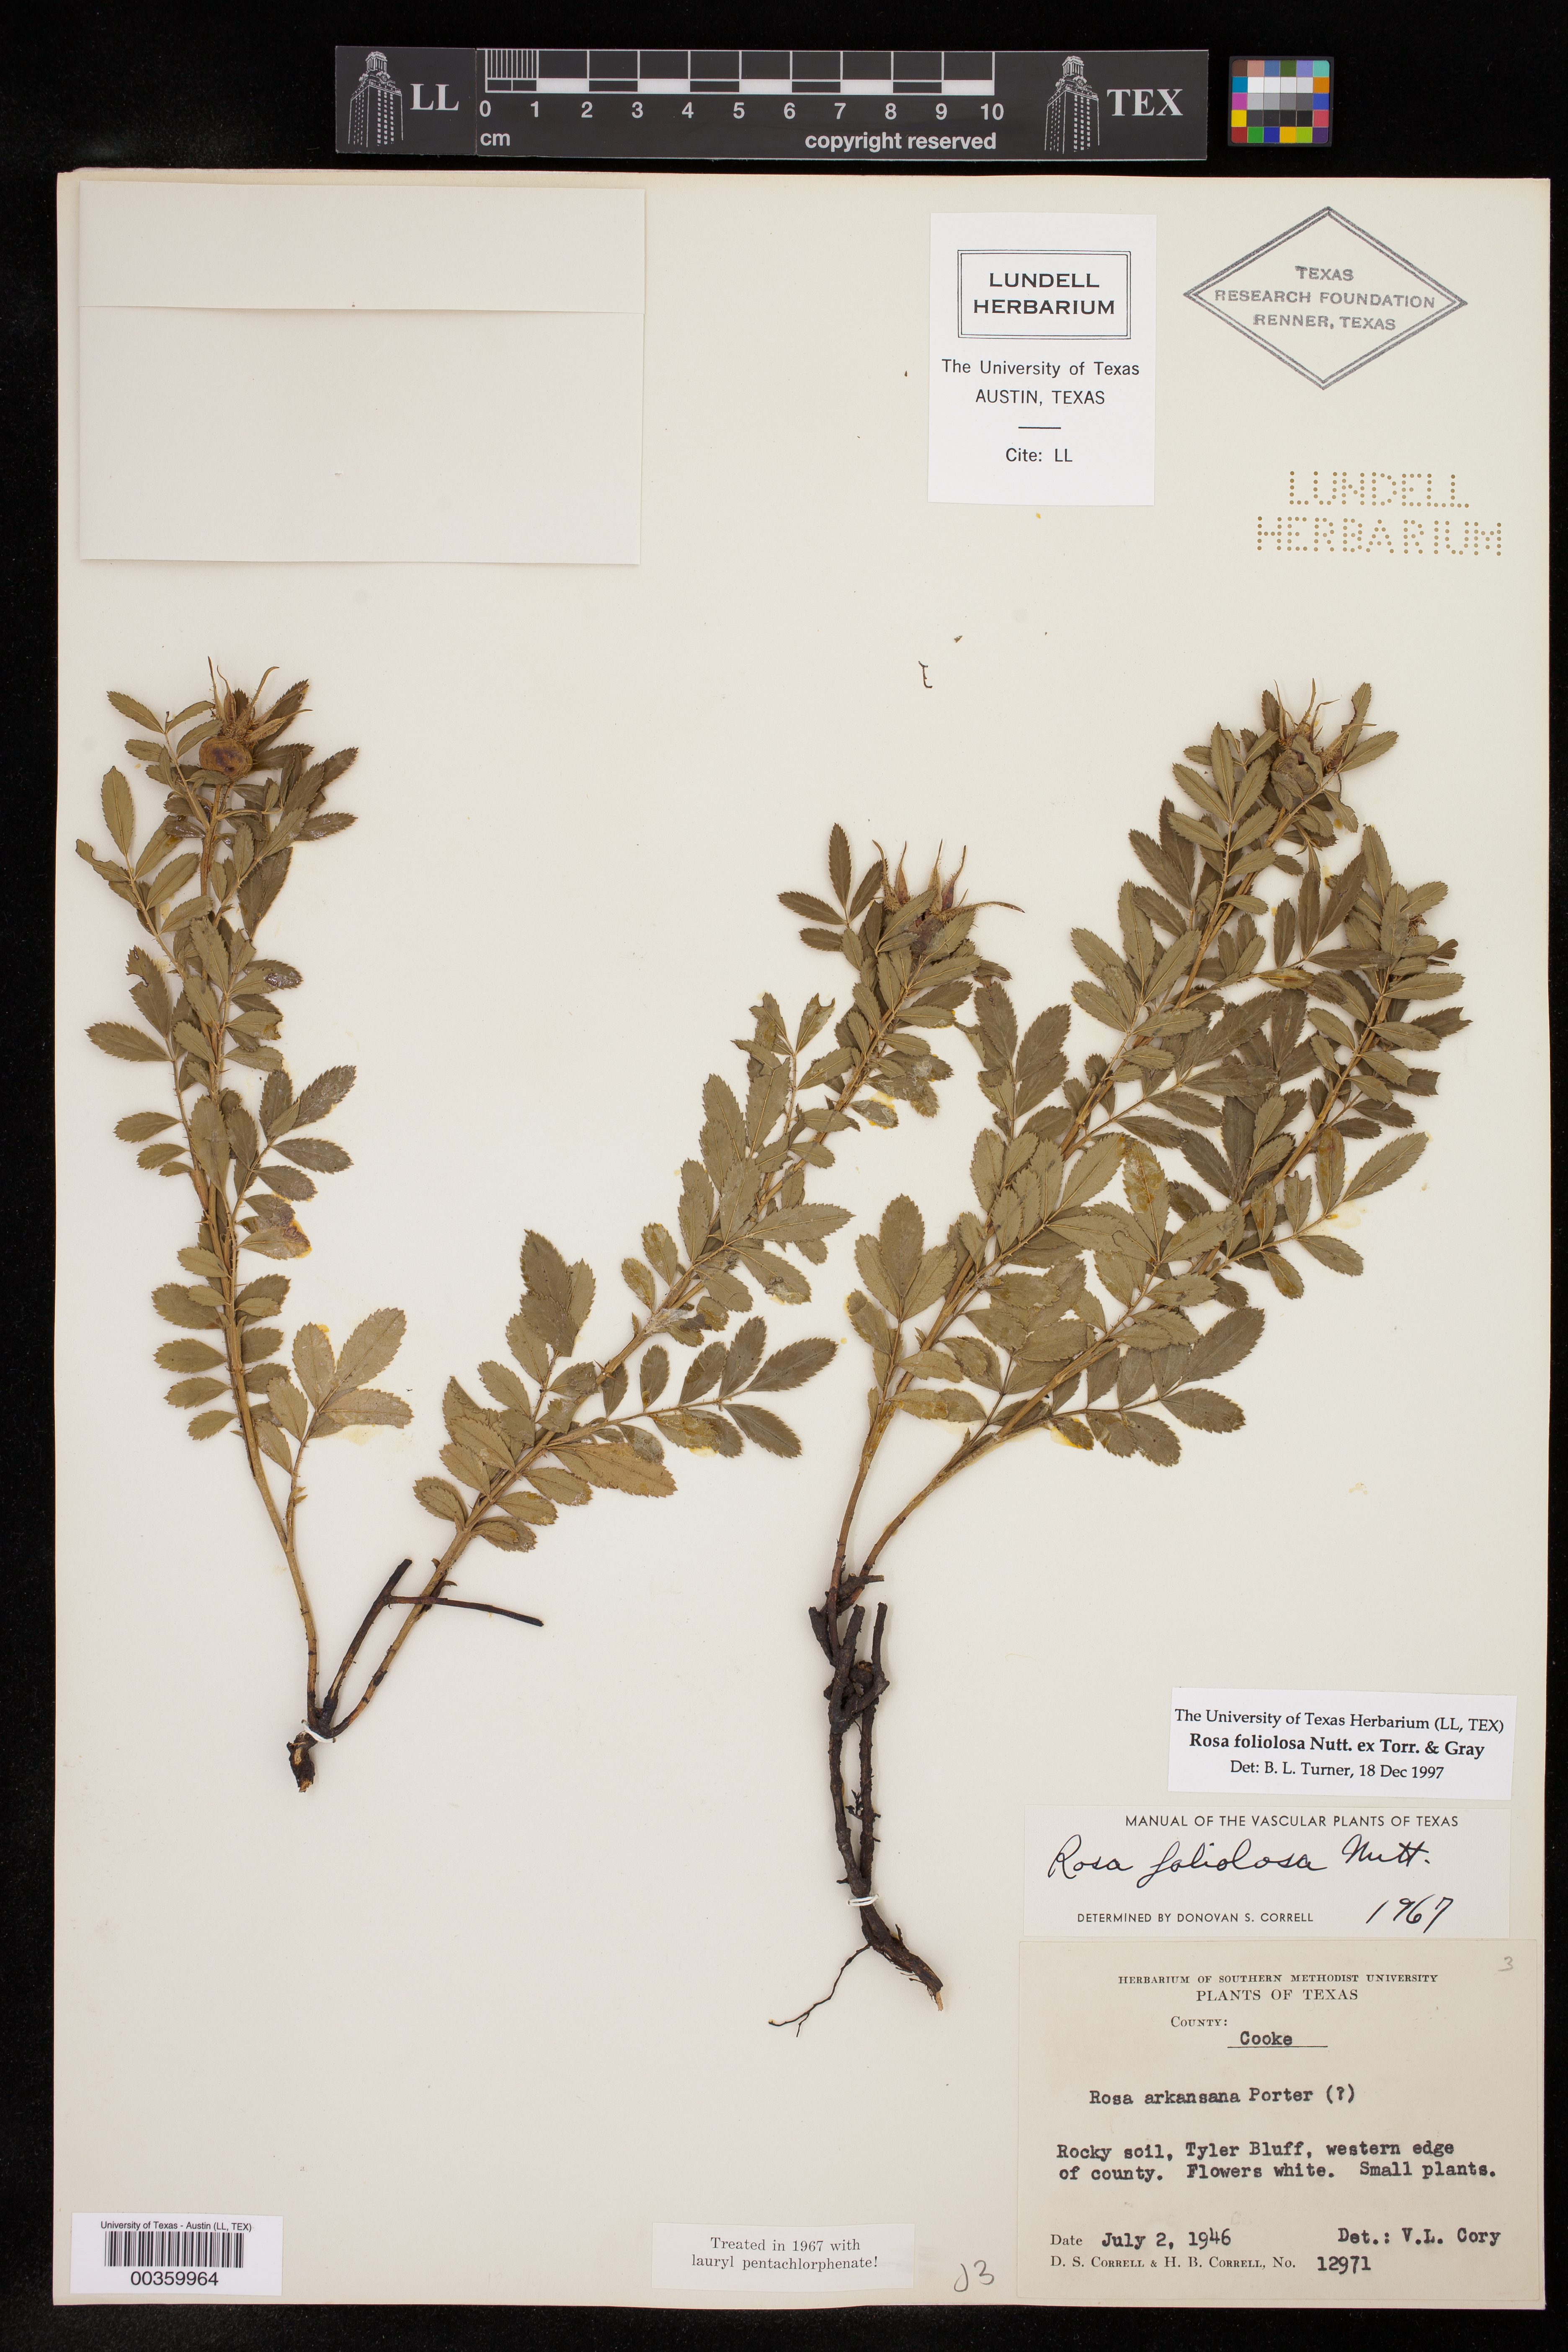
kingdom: Plantae
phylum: Tracheophyta
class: Magnoliopsida
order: Rosales
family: Rosaceae
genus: Rosa
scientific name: Rosa foliolosa
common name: White prairie rose
